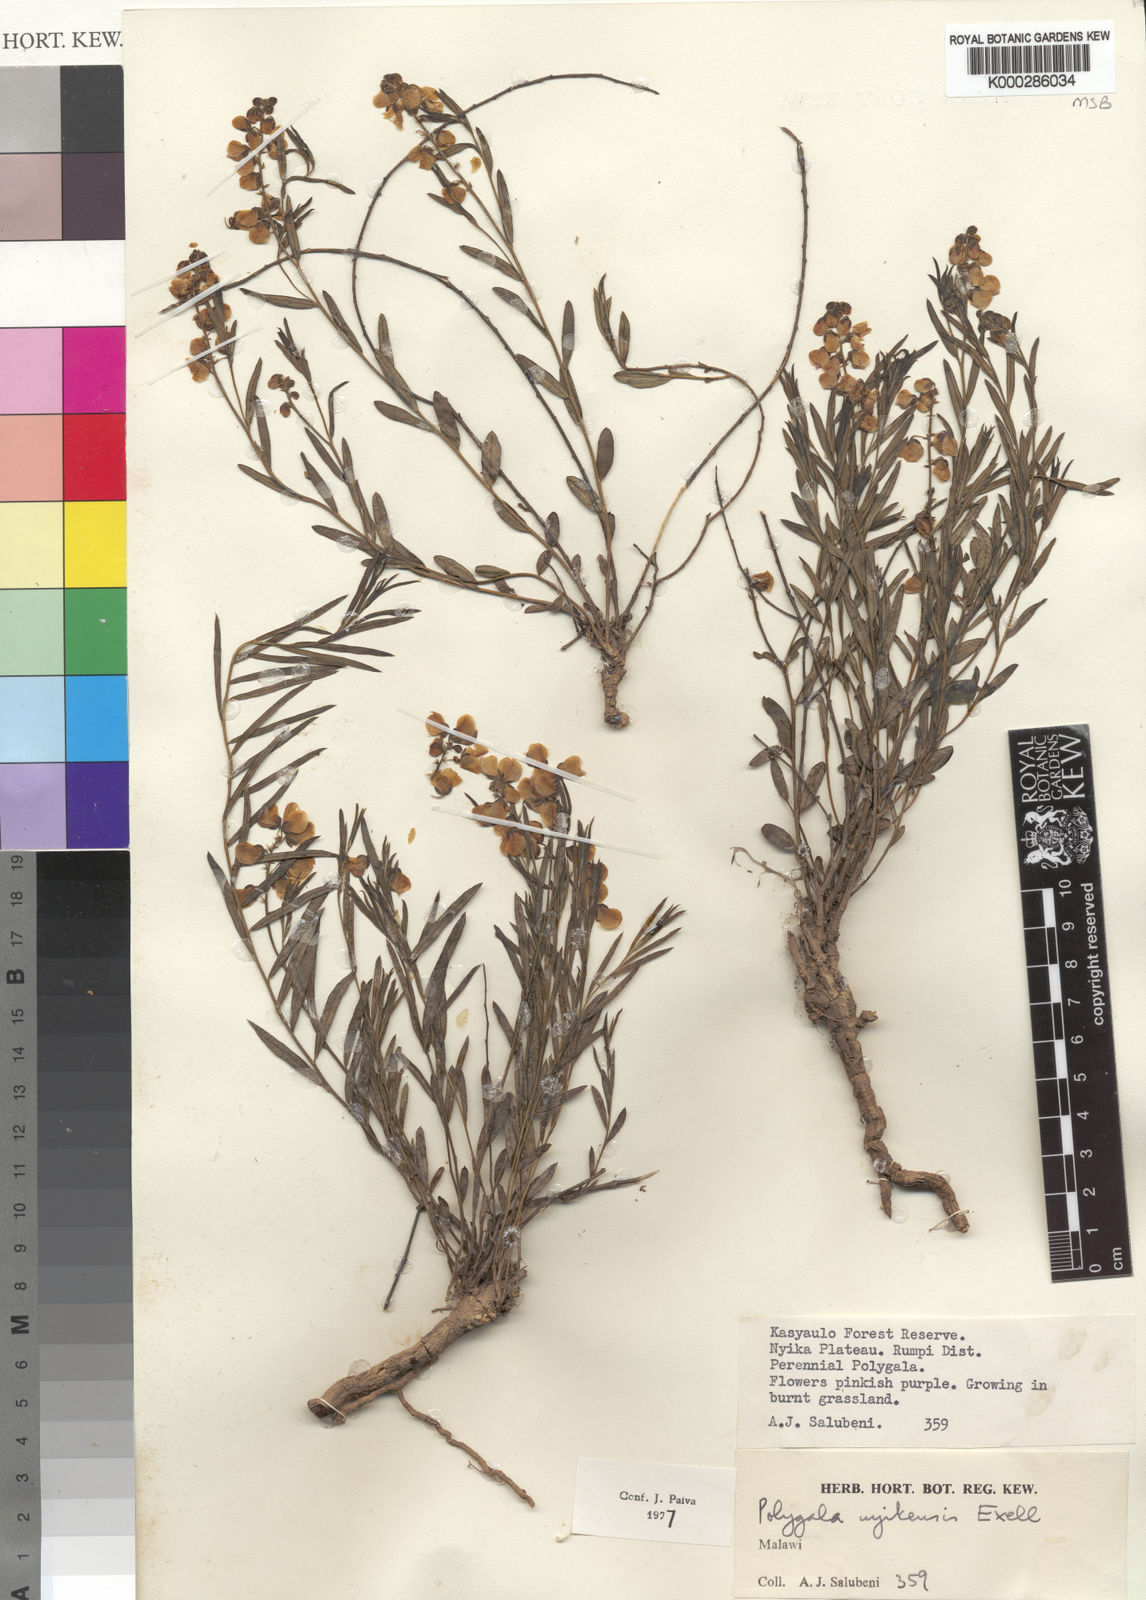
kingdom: Plantae
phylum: Tracheophyta
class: Magnoliopsida
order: Fabales
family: Polygalaceae
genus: Polygala
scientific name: Polygala nyikensis
